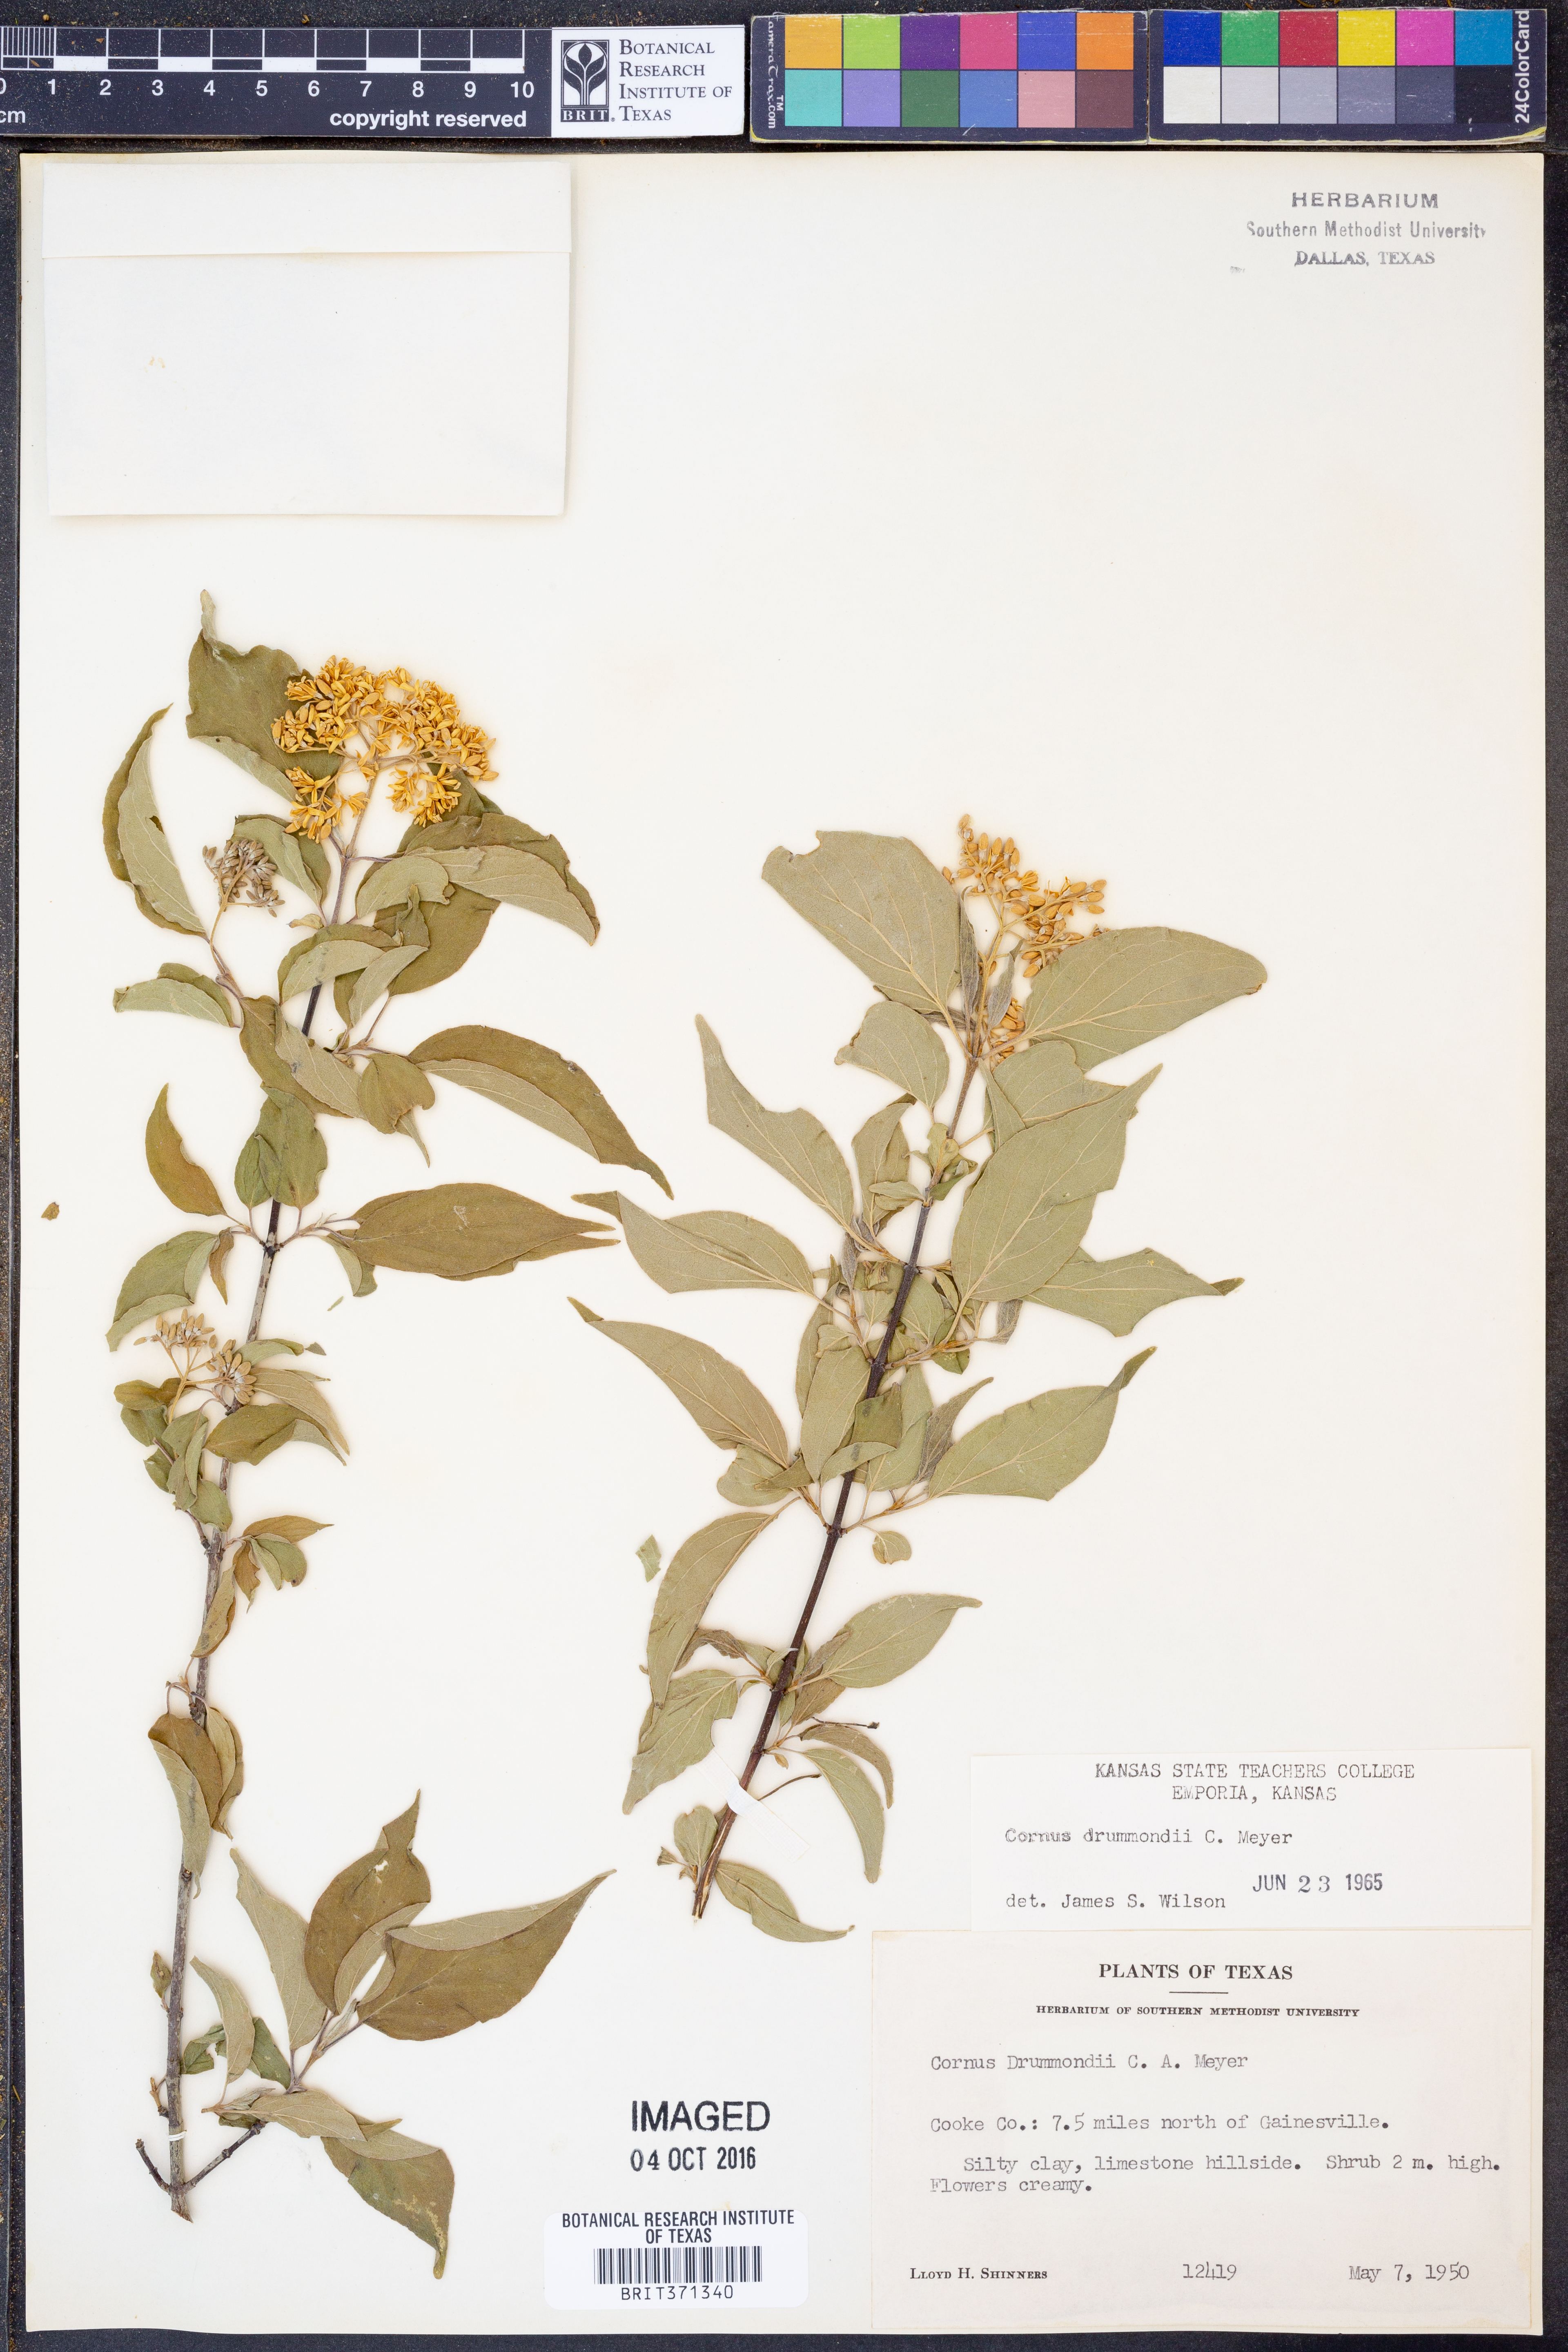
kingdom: Plantae
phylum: Tracheophyta
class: Magnoliopsida
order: Cornales
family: Cornaceae
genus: Cornus
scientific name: Cornus drummondii
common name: Rough-leaf dogwood
